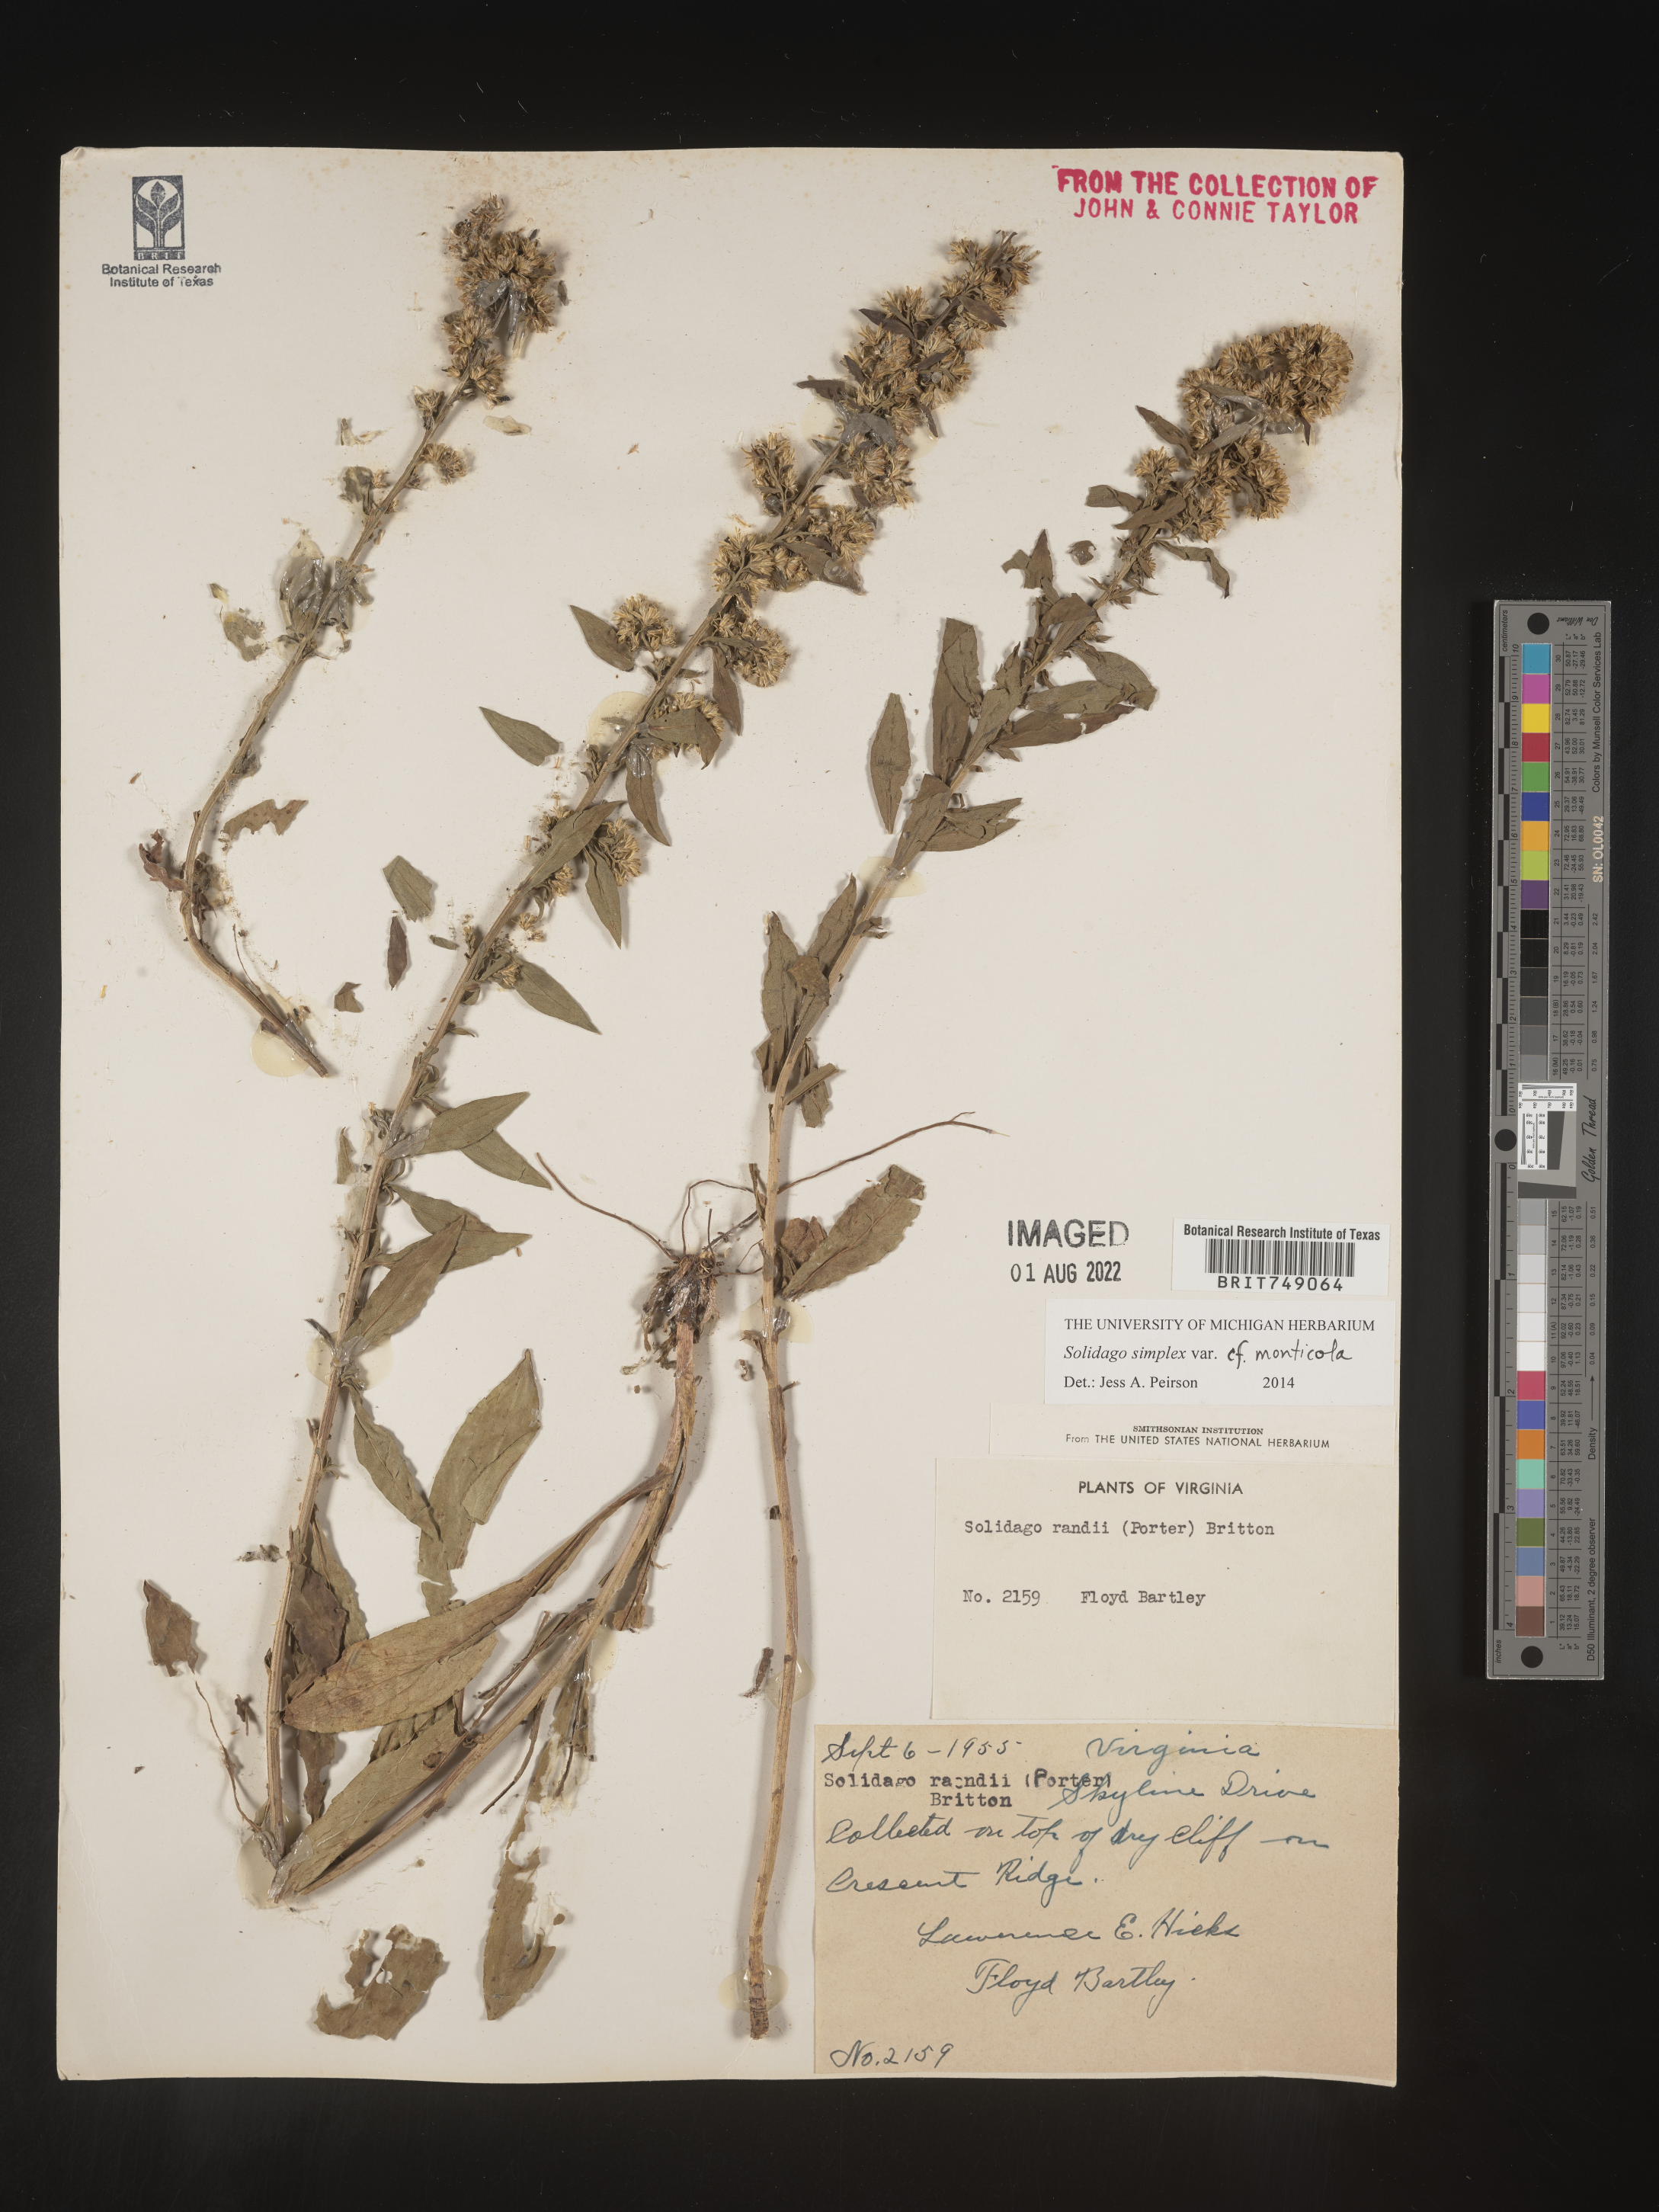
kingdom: Plantae
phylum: Tracheophyta
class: Magnoliopsida
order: Asterales
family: Asteraceae
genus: Solidago
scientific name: Solidago simplex
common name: Sticky goldenrod
